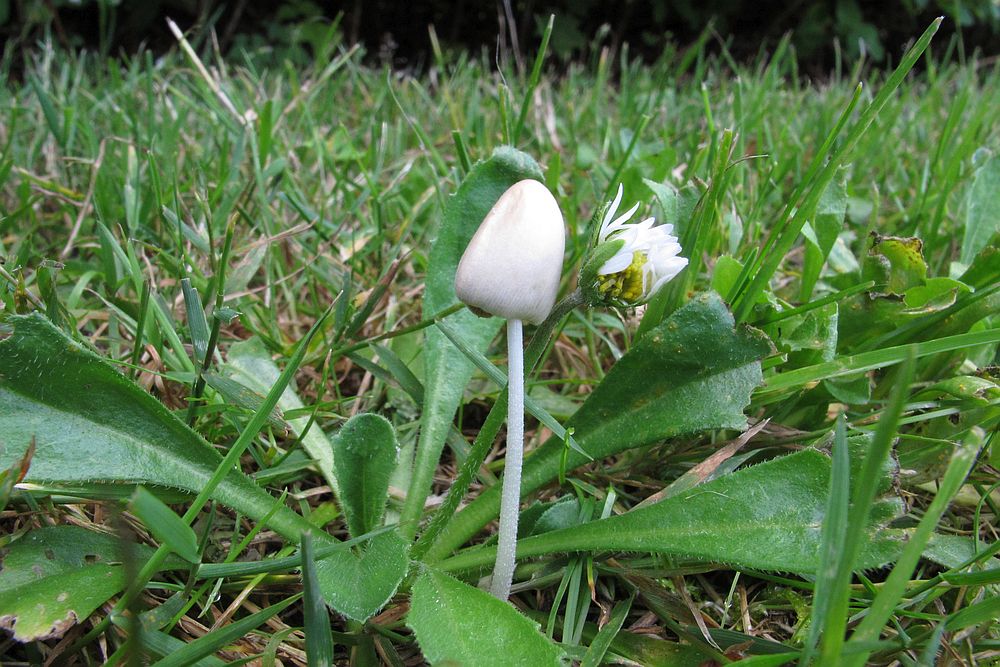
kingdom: Fungi
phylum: Basidiomycota
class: Agaricomycetes
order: Agaricales
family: Bolbitiaceae
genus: Conocybe
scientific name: Conocybe apala
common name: mælkehvid keglehat
